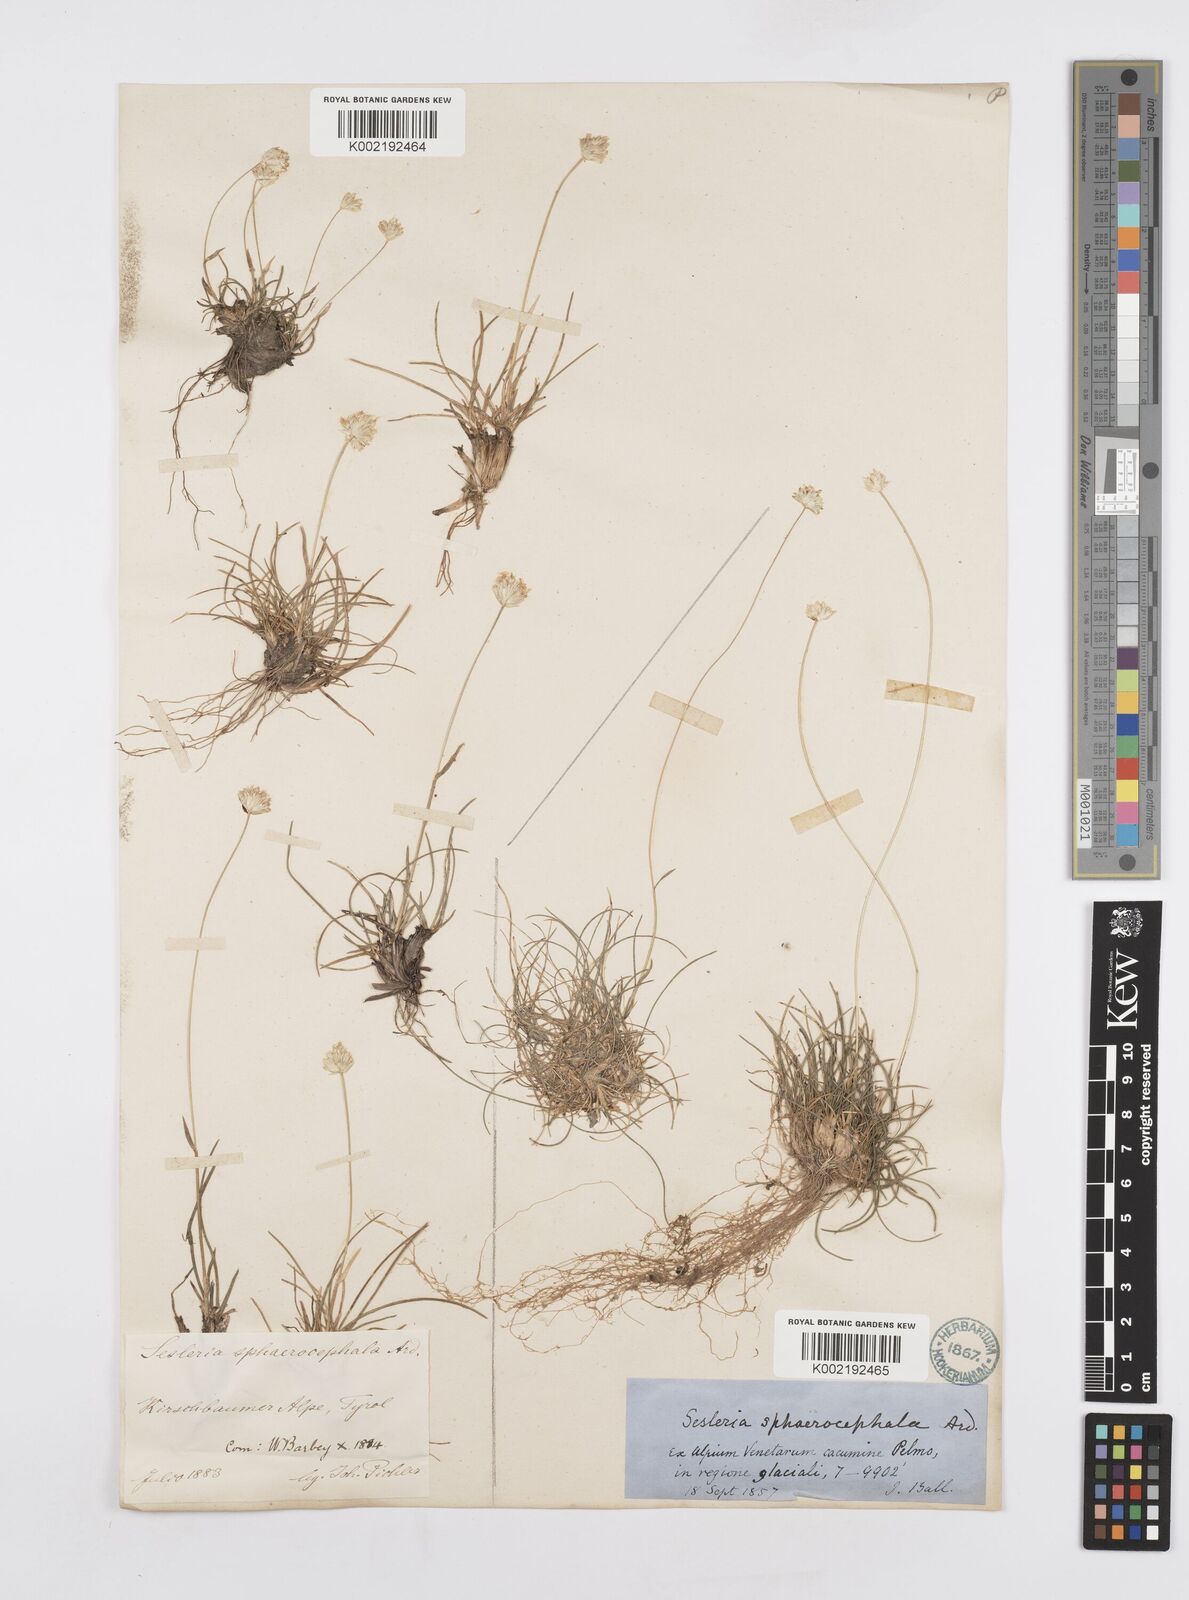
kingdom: Plantae
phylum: Tracheophyta
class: Liliopsida
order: Poales
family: Poaceae
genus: Sesleriella
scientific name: Sesleriella sphaerocephala
